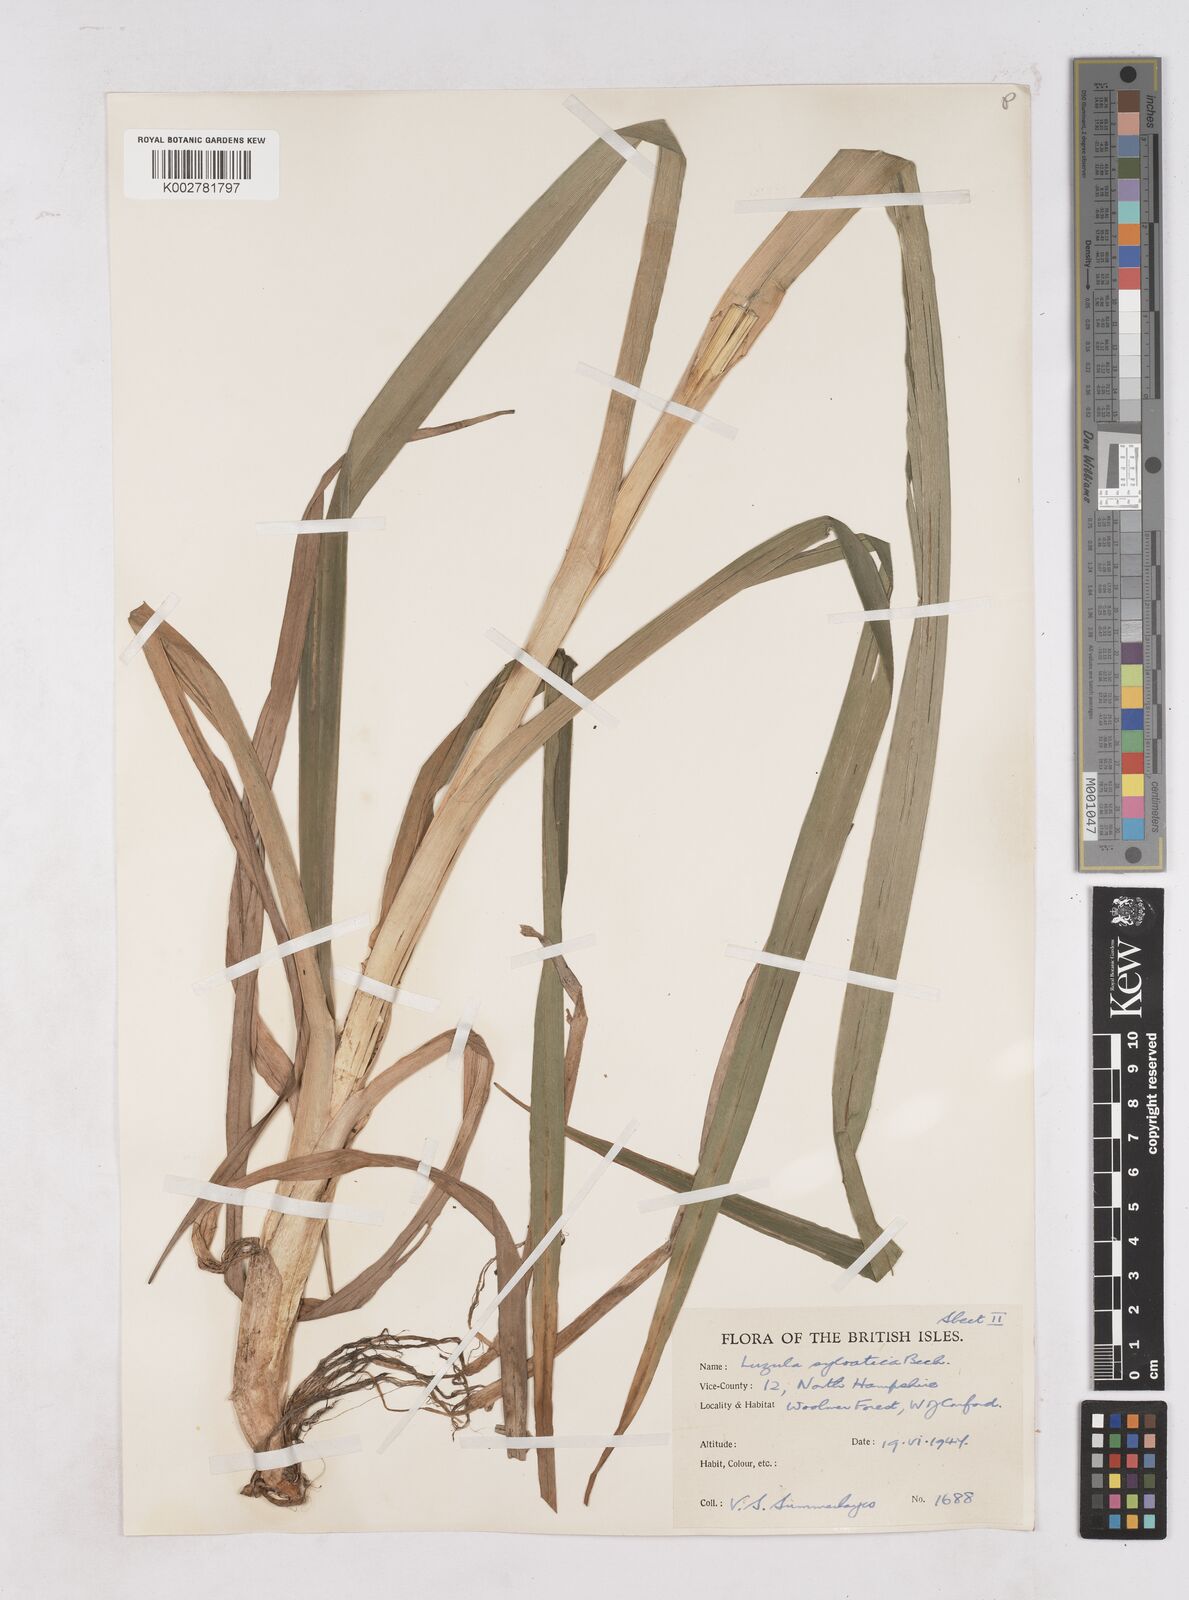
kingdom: Plantae
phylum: Tracheophyta
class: Liliopsida
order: Poales
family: Juncaceae
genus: Luzula
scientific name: Luzula sylvatica
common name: Great wood-rush
